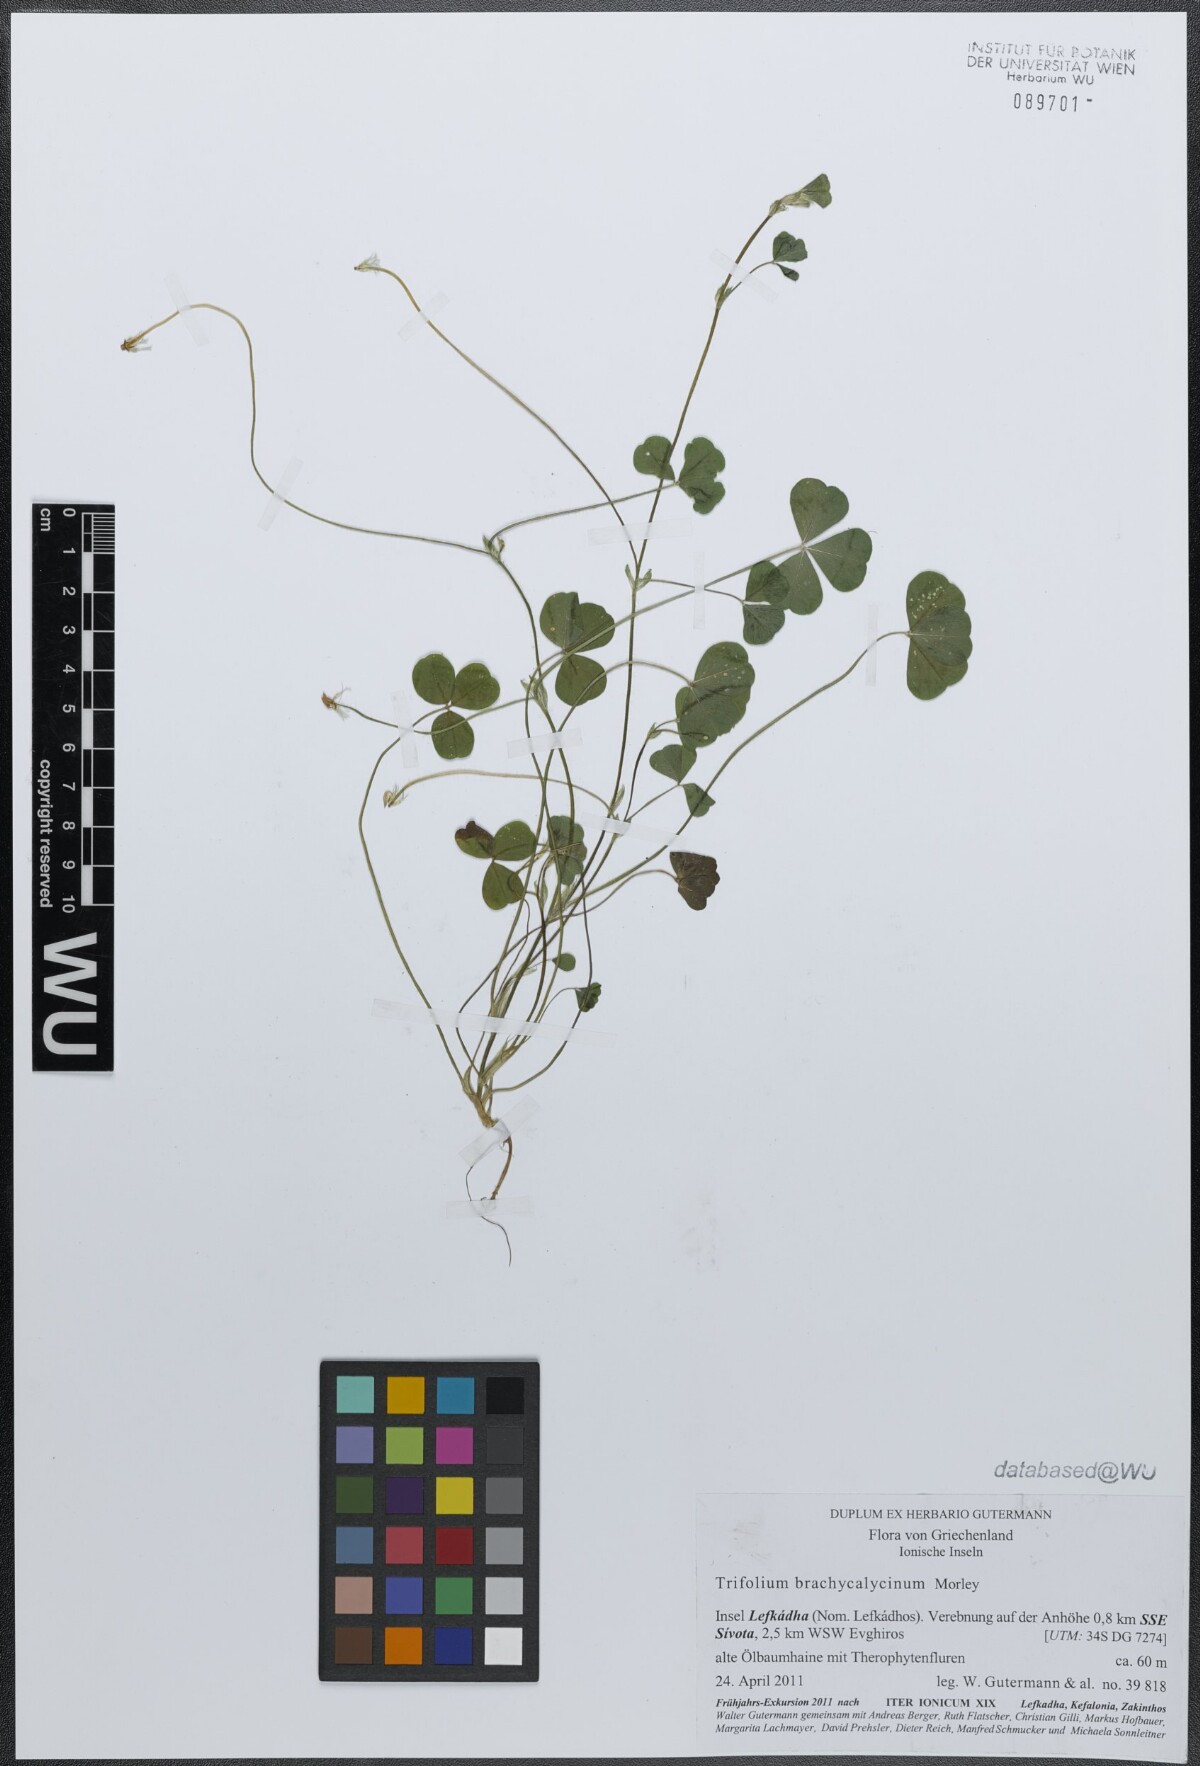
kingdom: Plantae
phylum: Tracheophyta
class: Magnoliopsida
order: Fabales
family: Fabaceae
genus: Trifolium
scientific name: Trifolium subterraneum
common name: Subterranean clover
